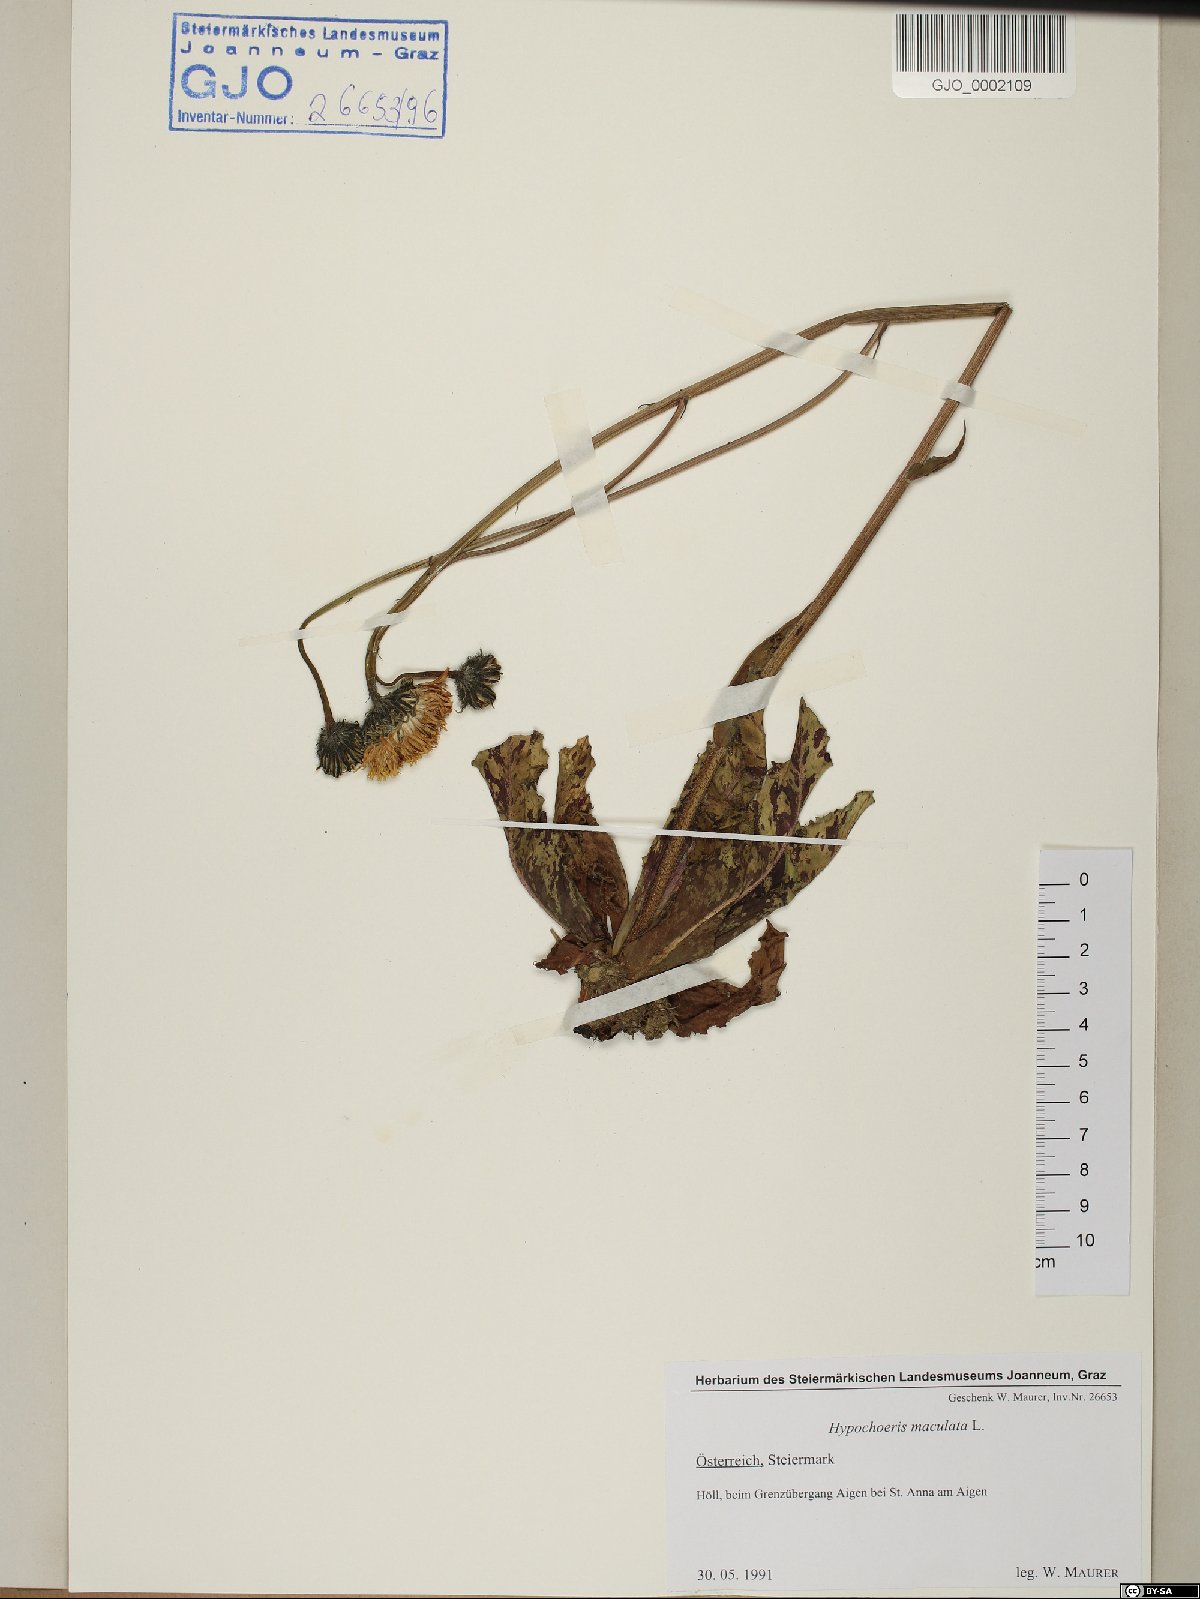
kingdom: Plantae
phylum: Tracheophyta
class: Magnoliopsida
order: Asterales
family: Asteraceae
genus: Trommsdorffia
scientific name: Trommsdorffia maculata
